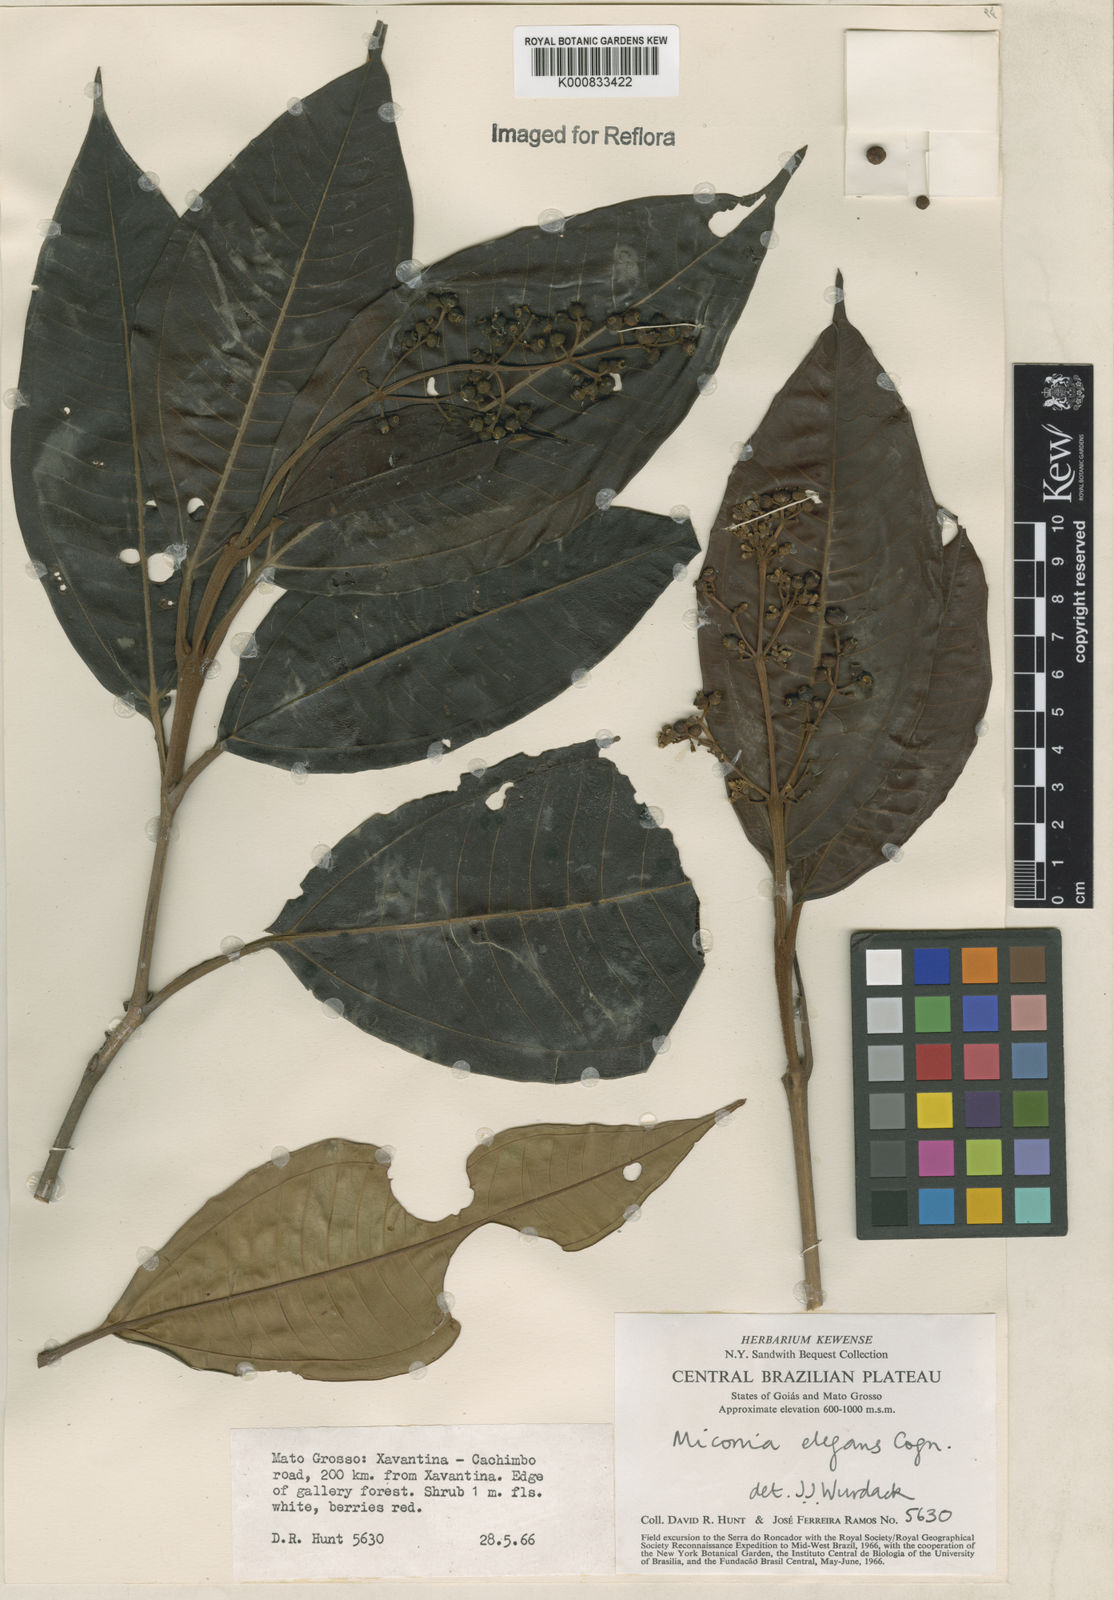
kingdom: Plantae
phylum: Tracheophyta
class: Magnoliopsida
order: Myrtales
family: Melastomataceae
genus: Miconia
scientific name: Miconia elegans
